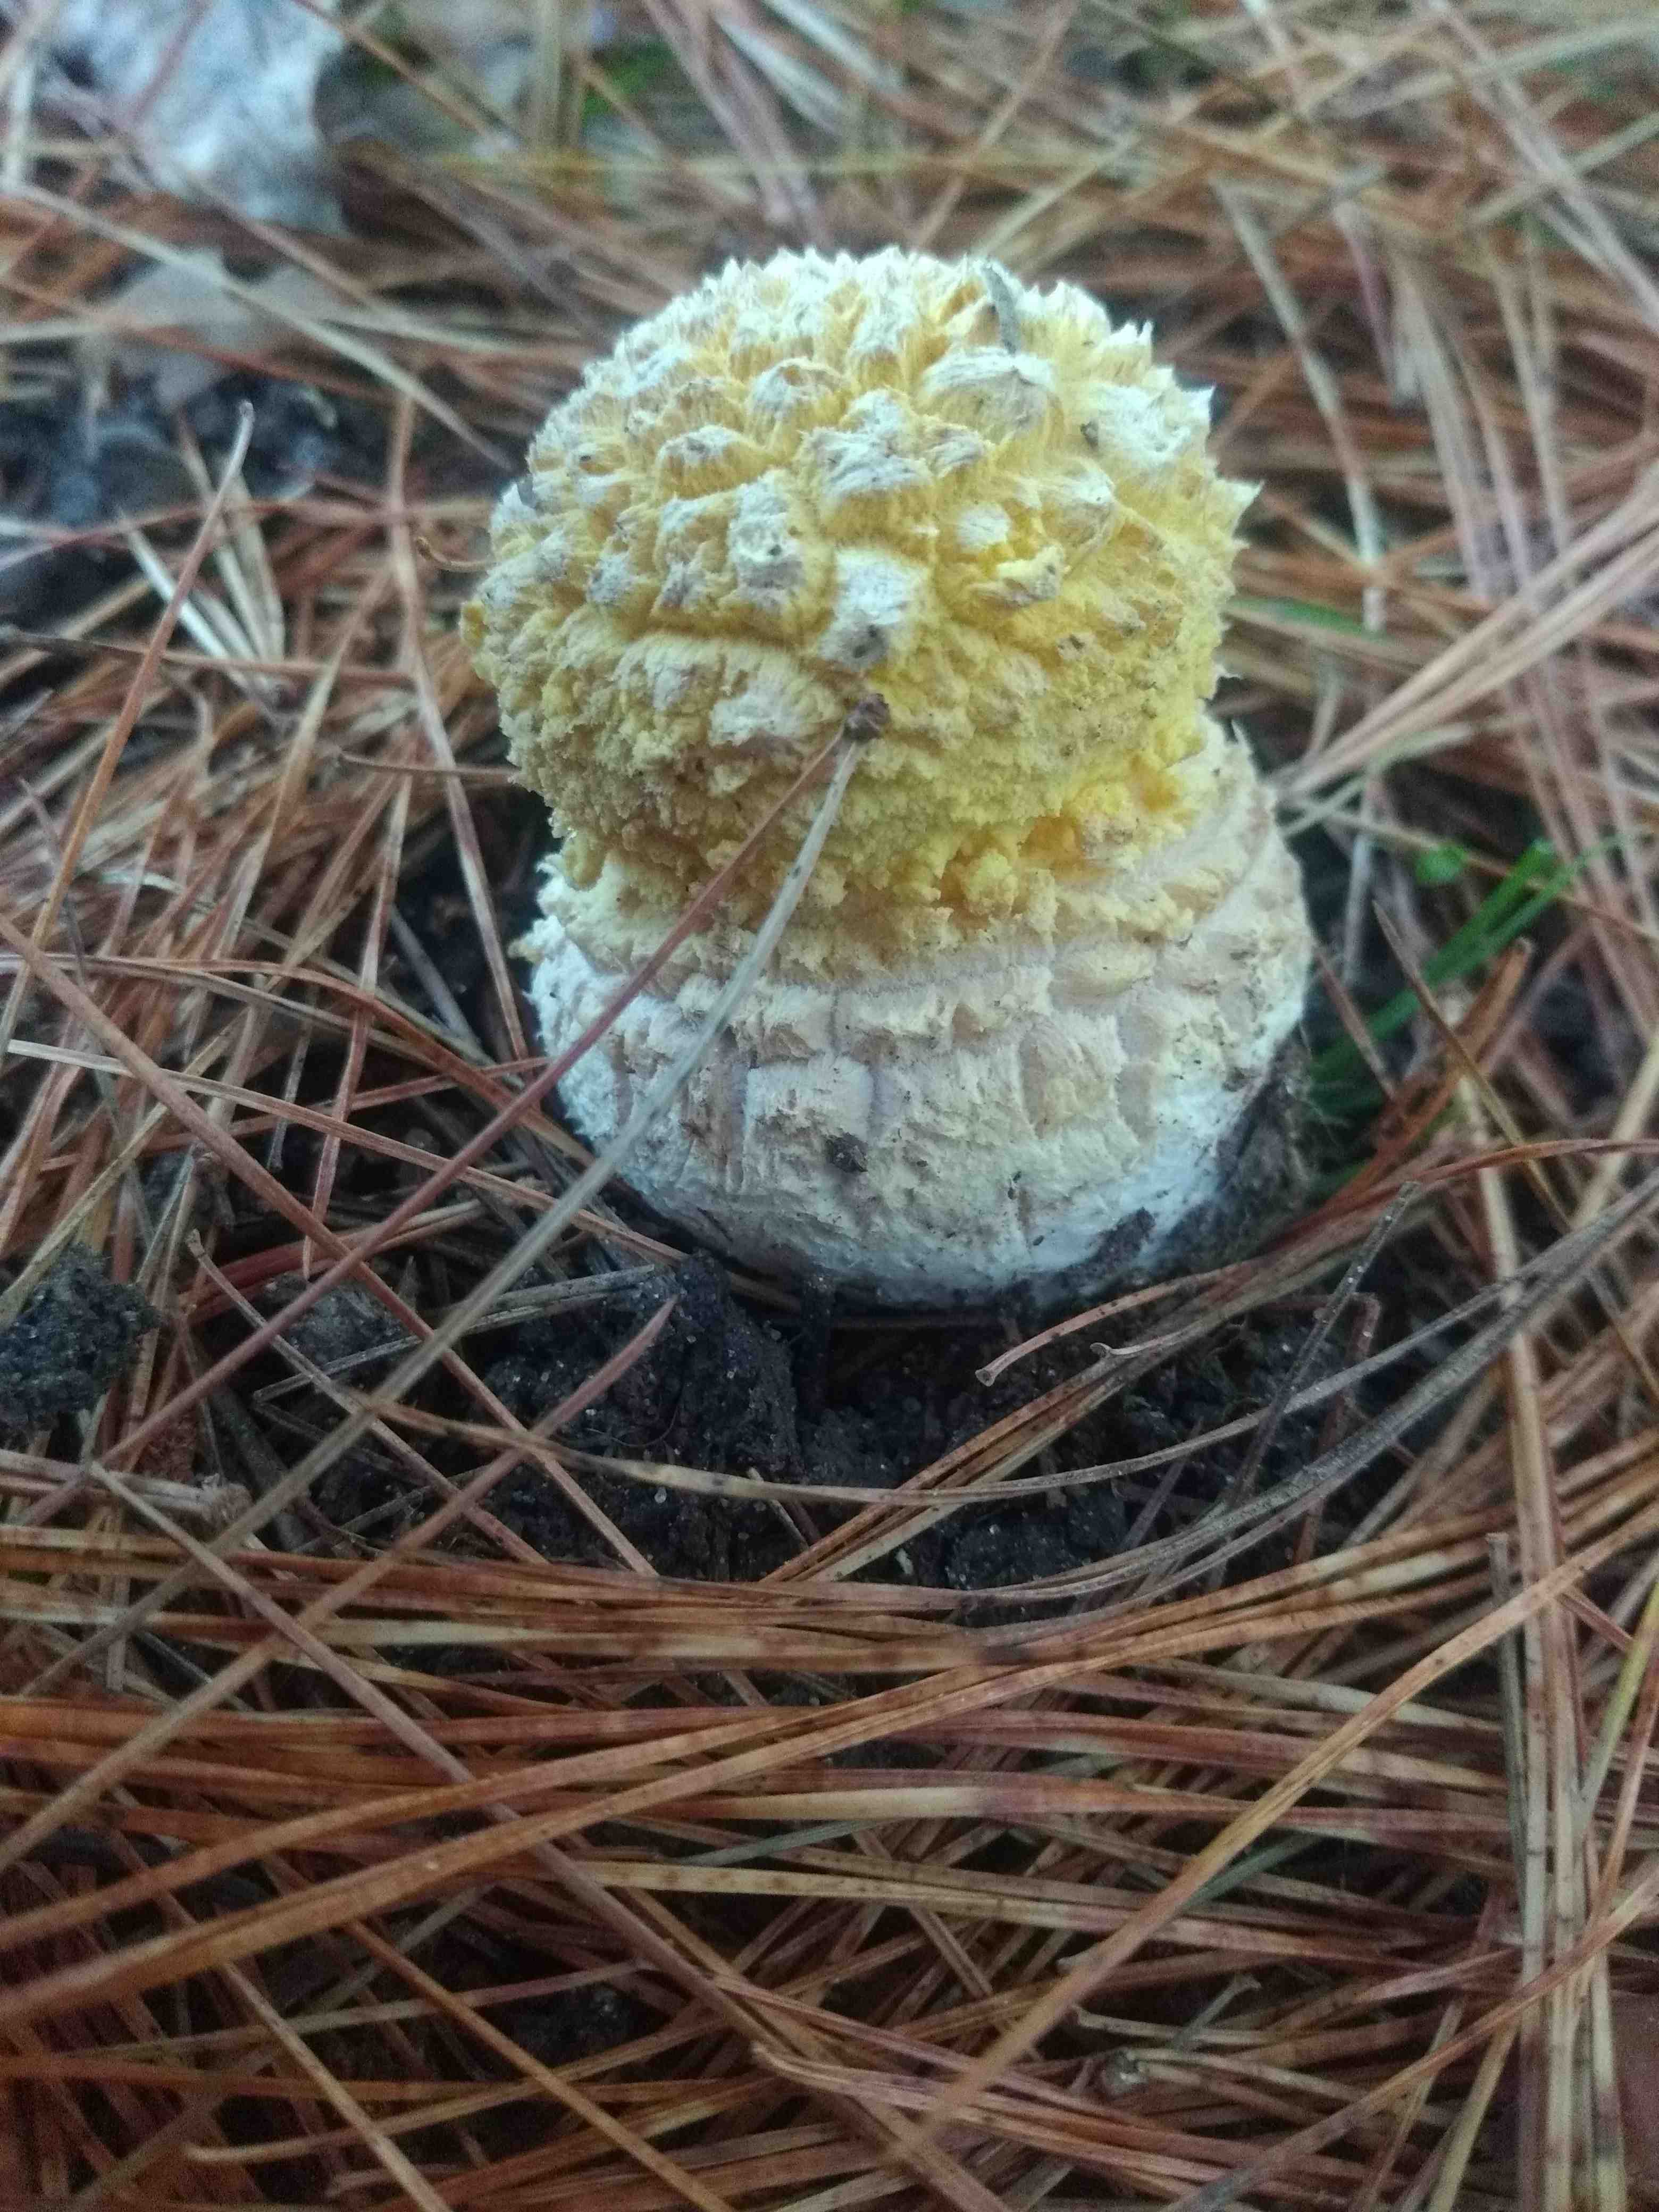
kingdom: Fungi
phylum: Basidiomycota
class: Agaricomycetes
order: Agaricales
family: Amanitaceae
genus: Amanita
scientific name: Amanita muscaria
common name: rød fluesvamp
